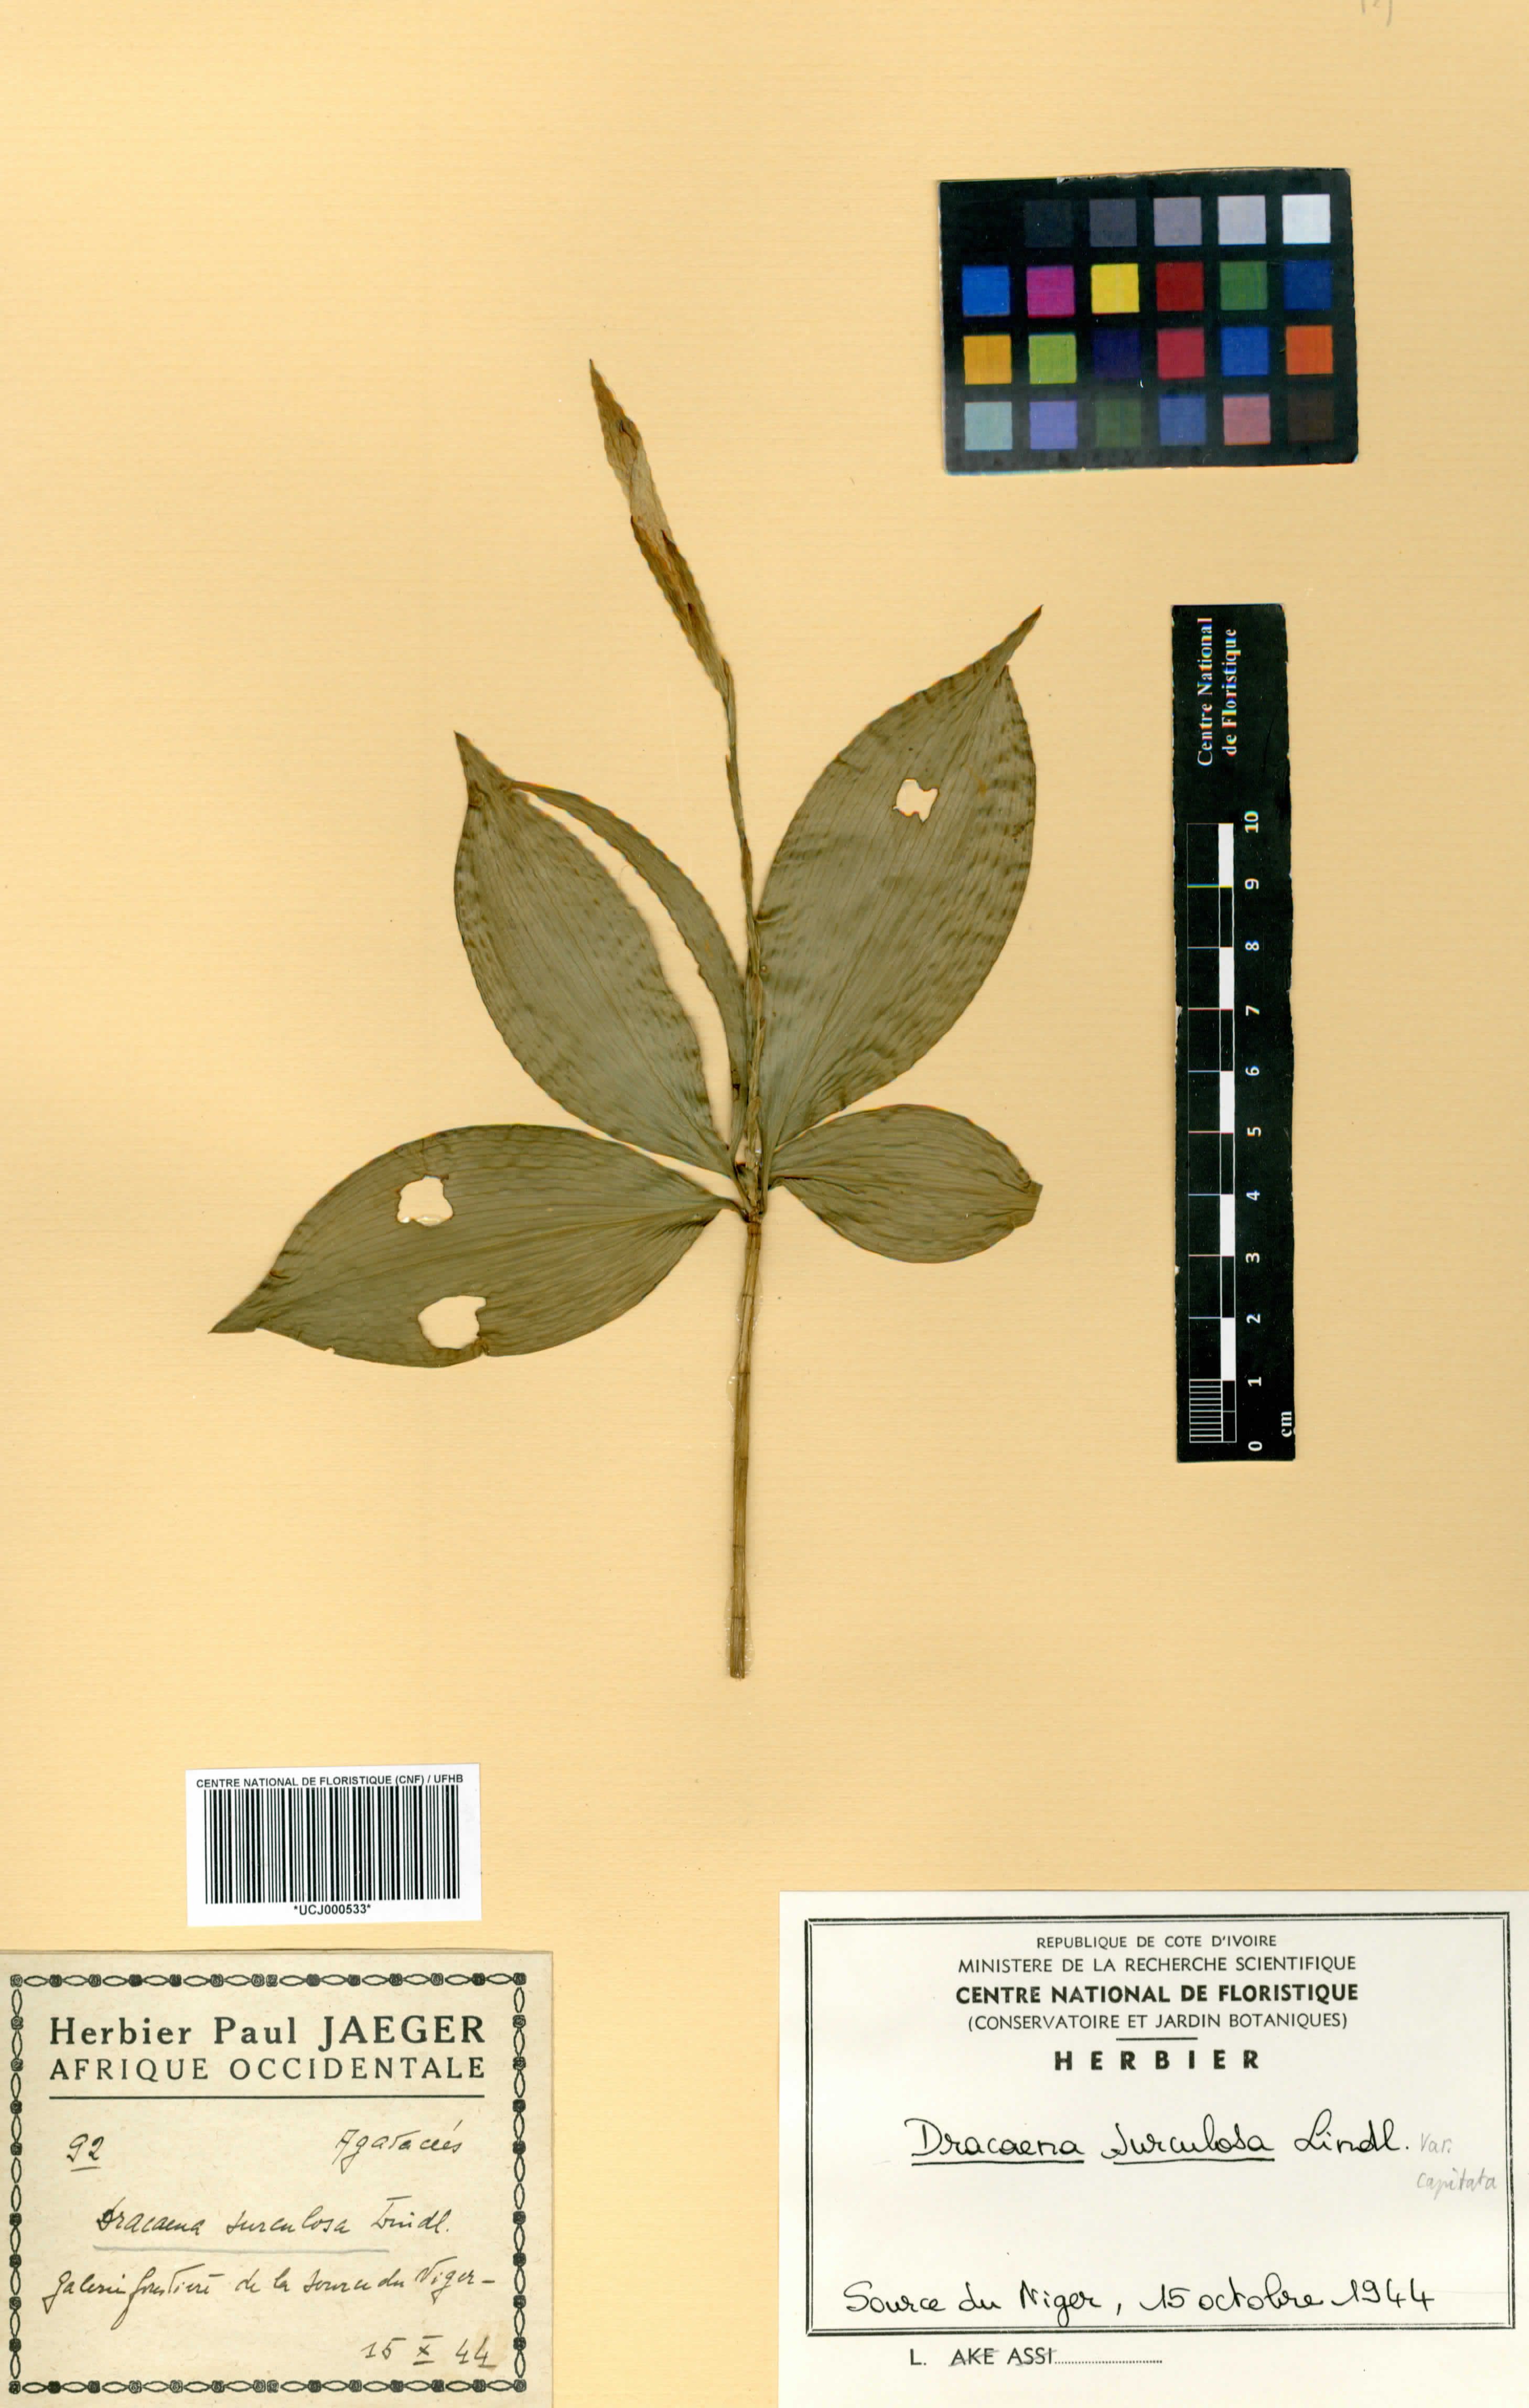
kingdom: Plantae
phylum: Tracheophyta
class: Liliopsida
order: Asparagales
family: Asparagaceae
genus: Dracaena
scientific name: Dracaena surculosa
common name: Spotted dracaena
